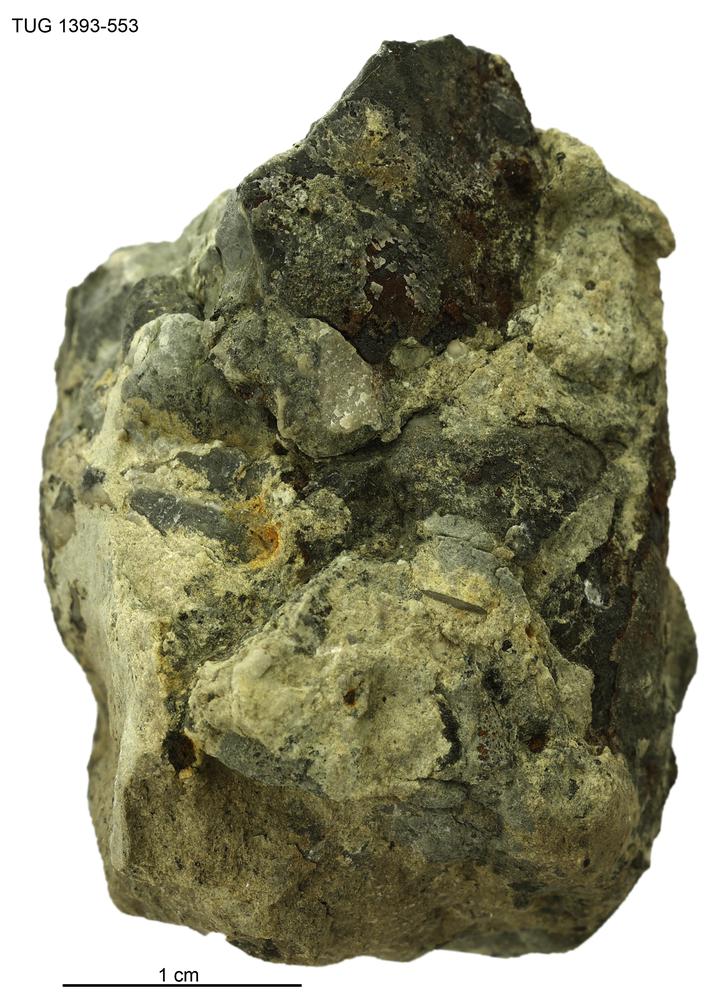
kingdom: Animalia
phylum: Mollusca
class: Cephalopoda
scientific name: Cephalopoda
